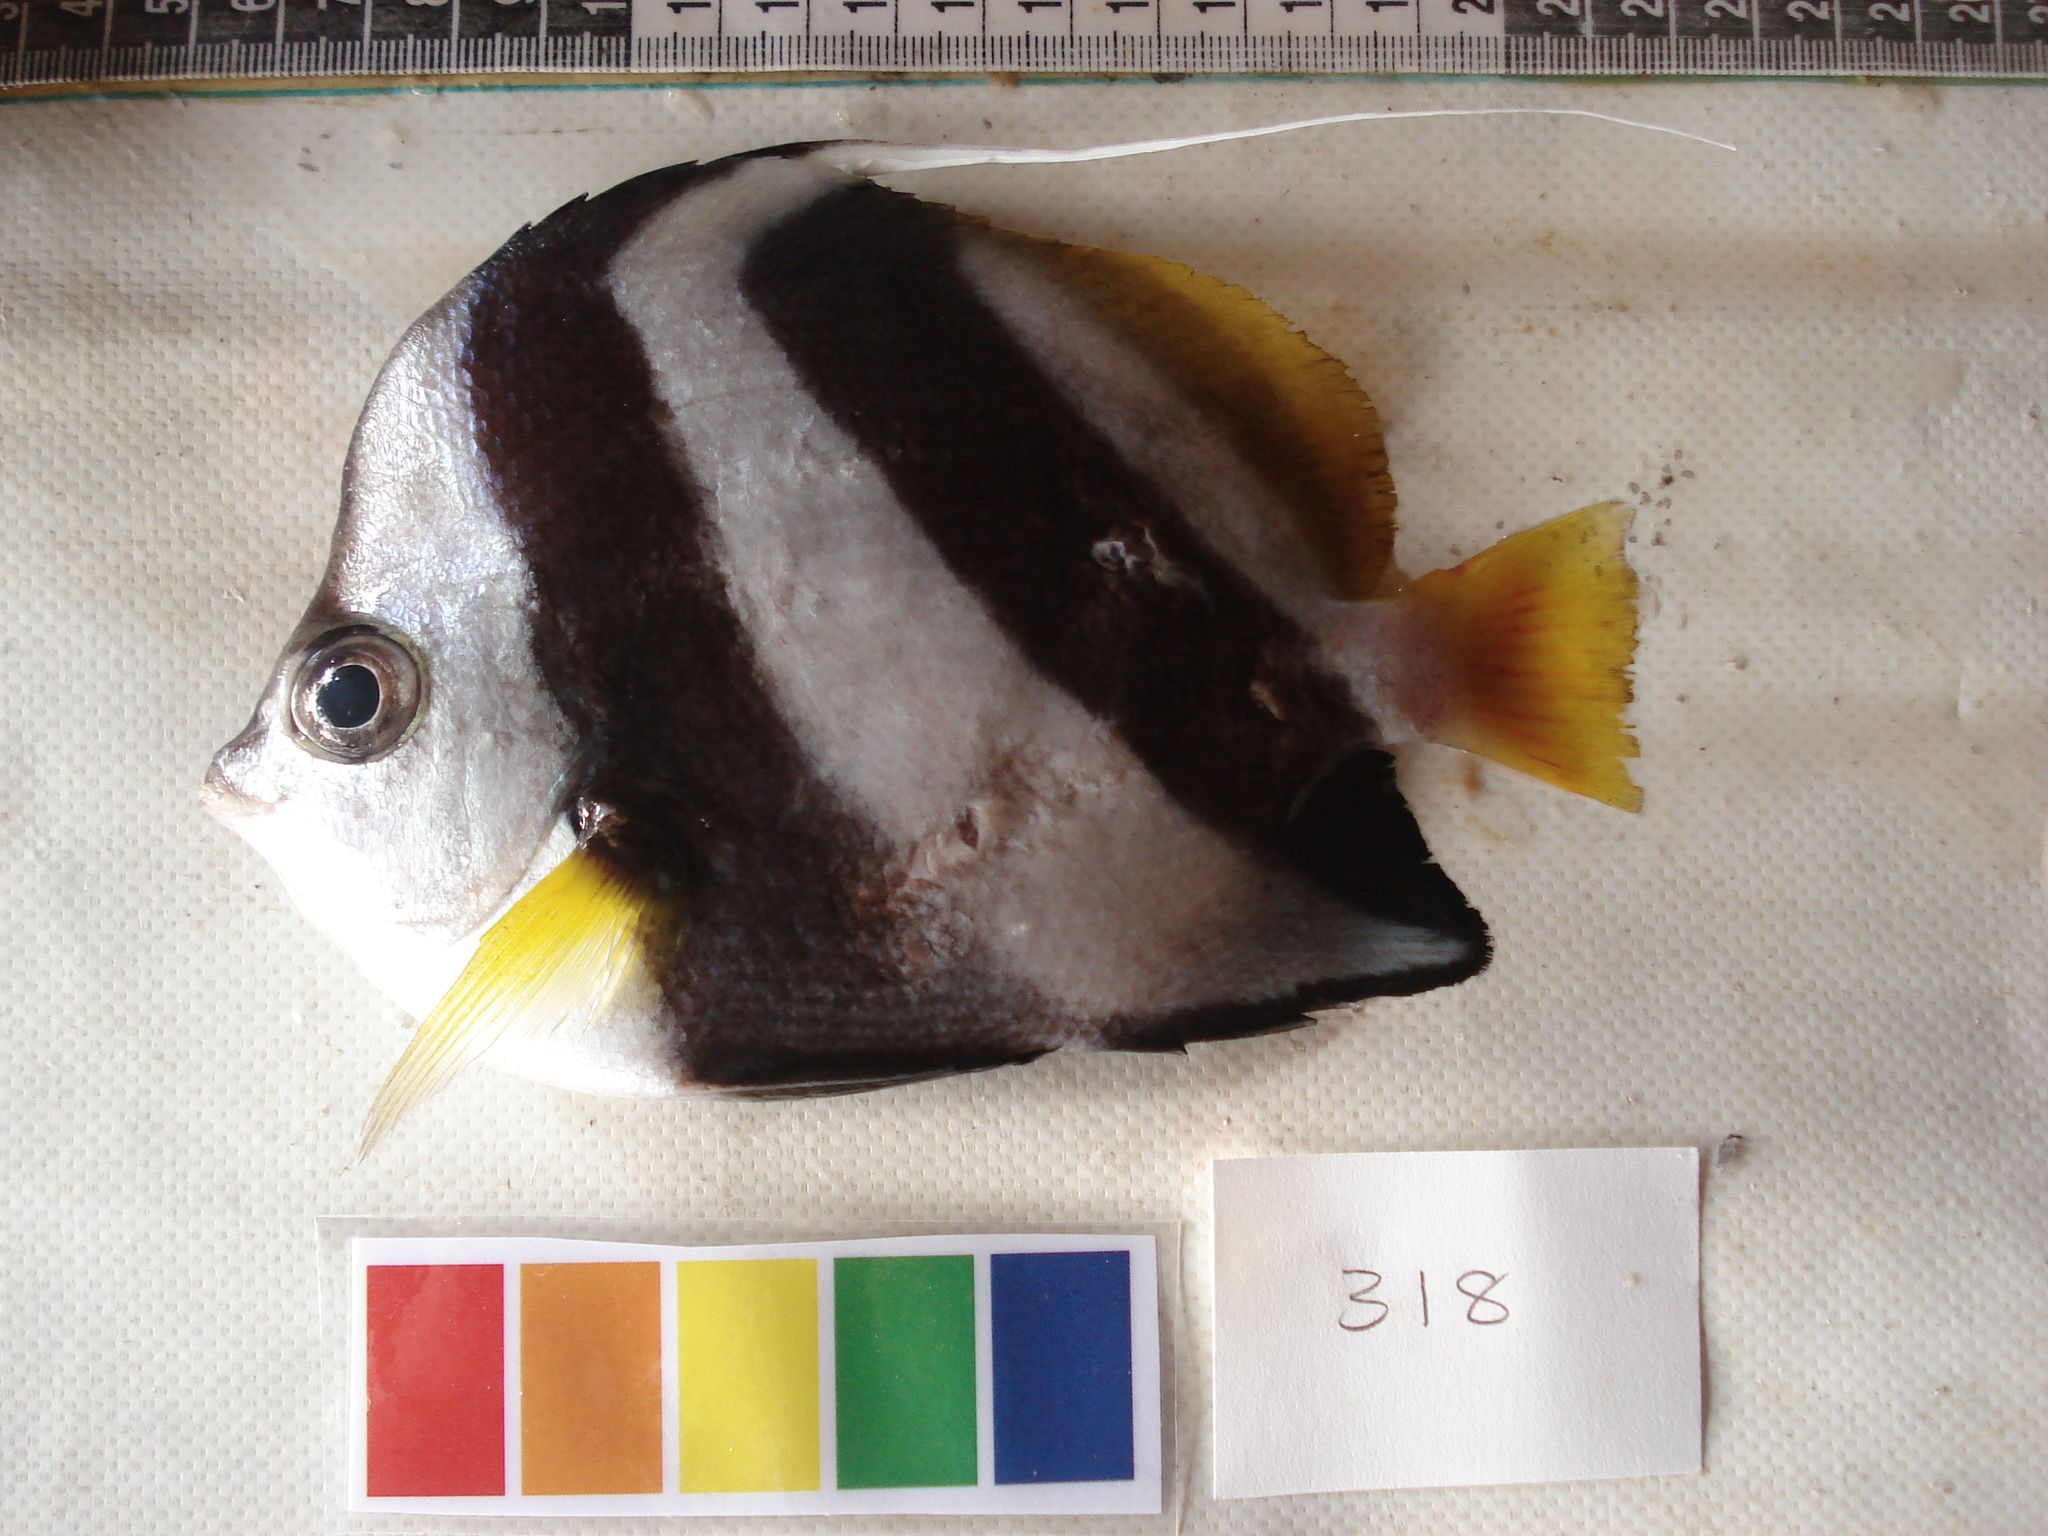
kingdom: Animalia
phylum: Chordata
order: Perciformes
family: Chaetodontidae
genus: Heniochus
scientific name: Heniochus diphreutes
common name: Pennantfish
